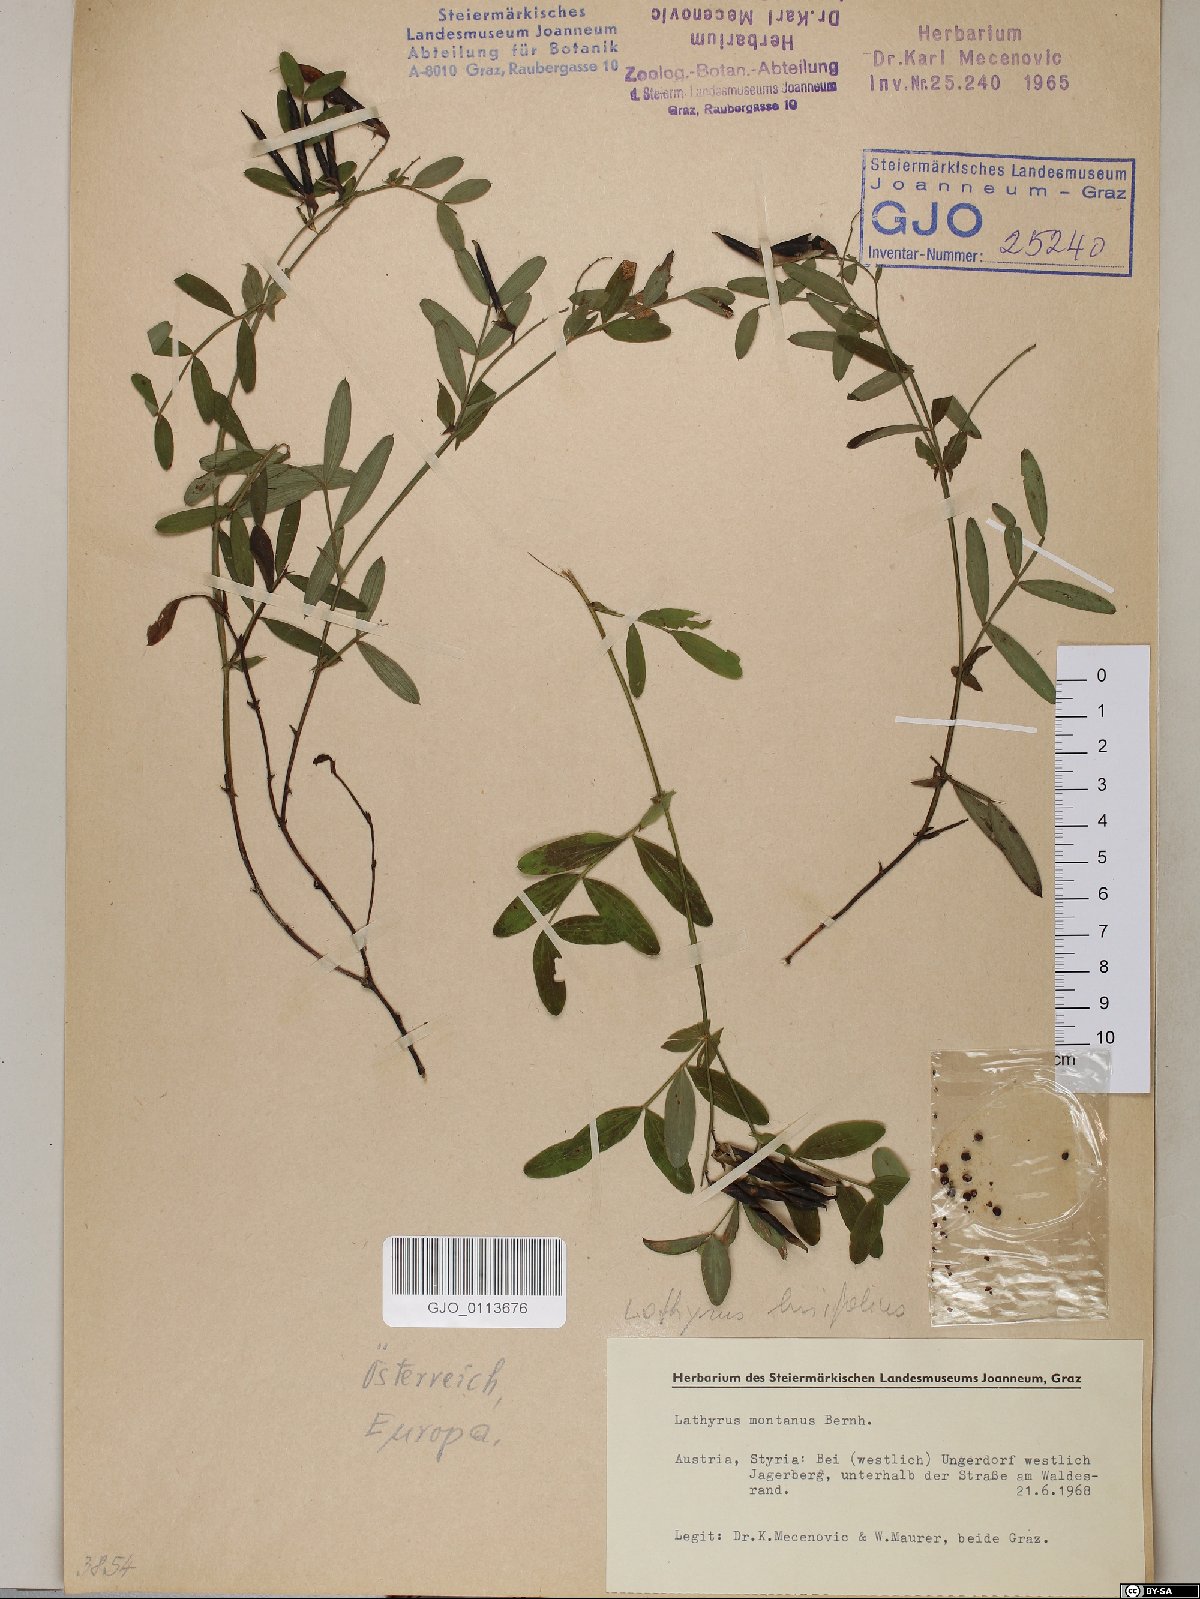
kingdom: Plantae
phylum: Tracheophyta
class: Magnoliopsida
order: Fabales
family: Fabaceae
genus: Lathyrus
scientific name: Lathyrus linifolius
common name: Bitter-vetch
